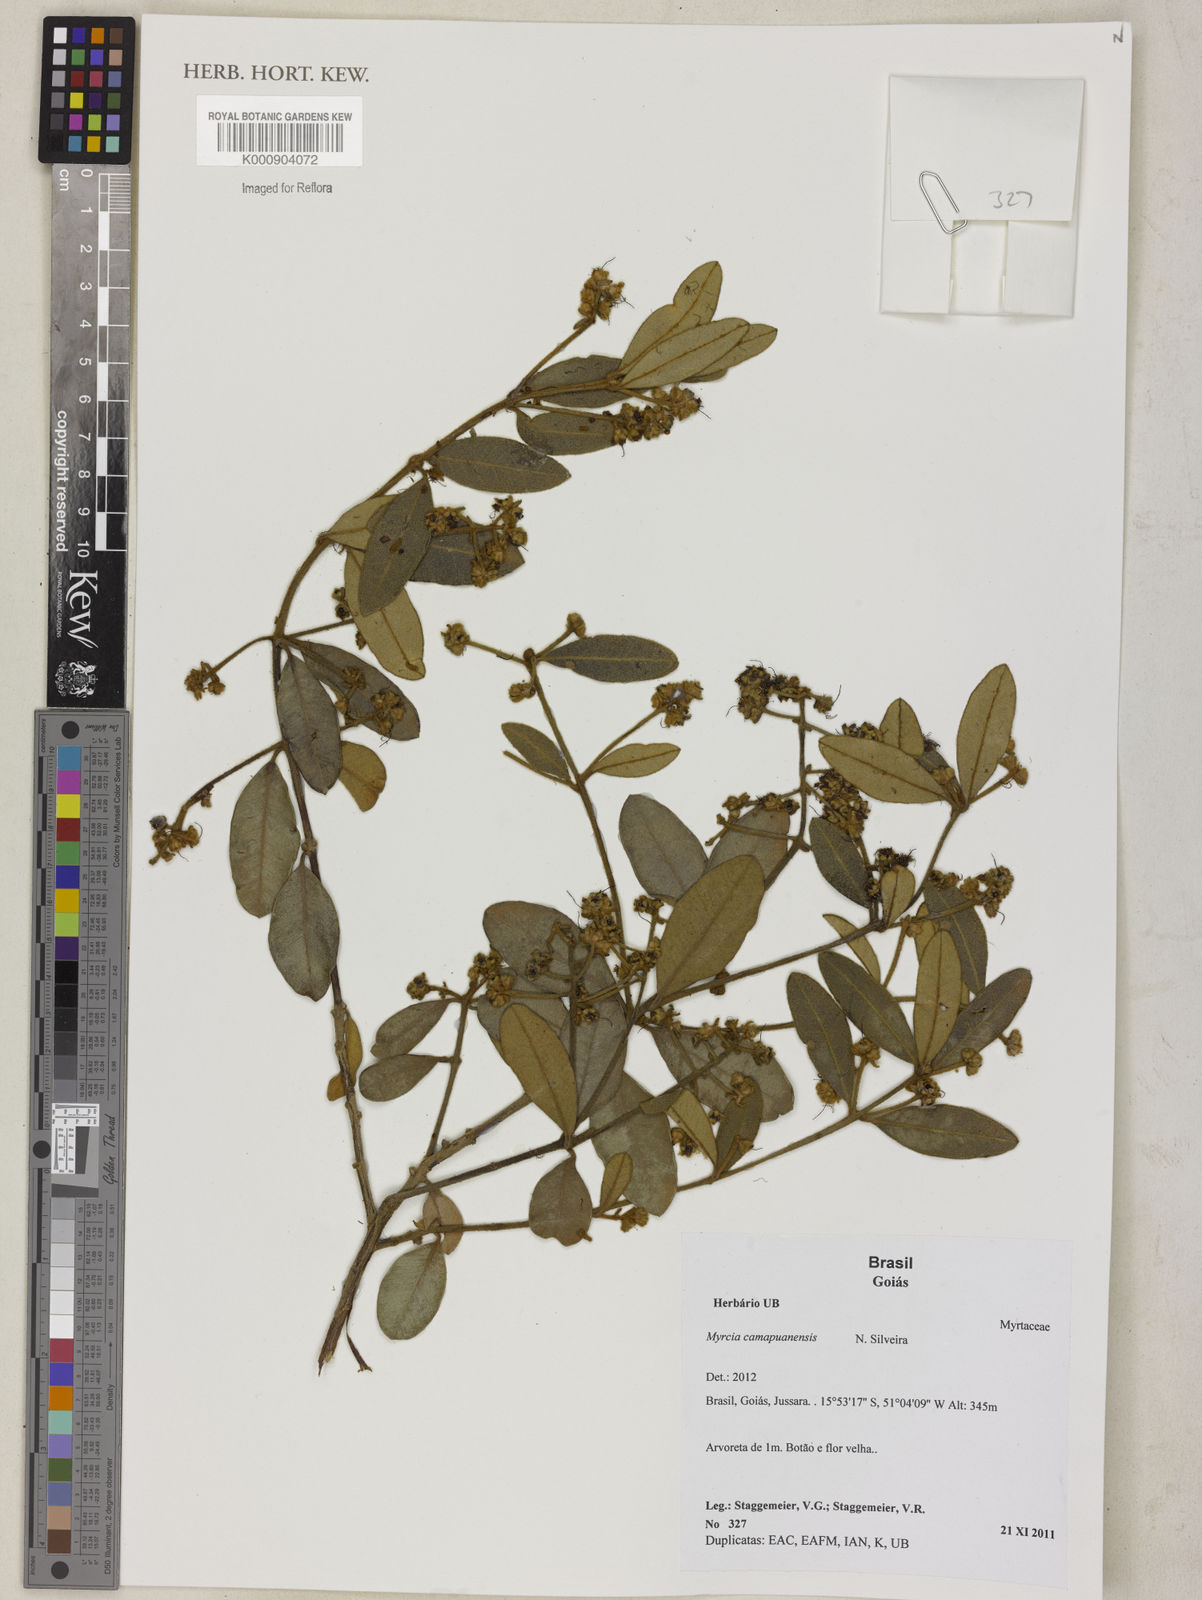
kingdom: Plantae
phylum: Tracheophyta
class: Magnoliopsida
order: Myrtales
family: Myrtaceae
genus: Myrcia
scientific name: Myrcia camapuanensis
